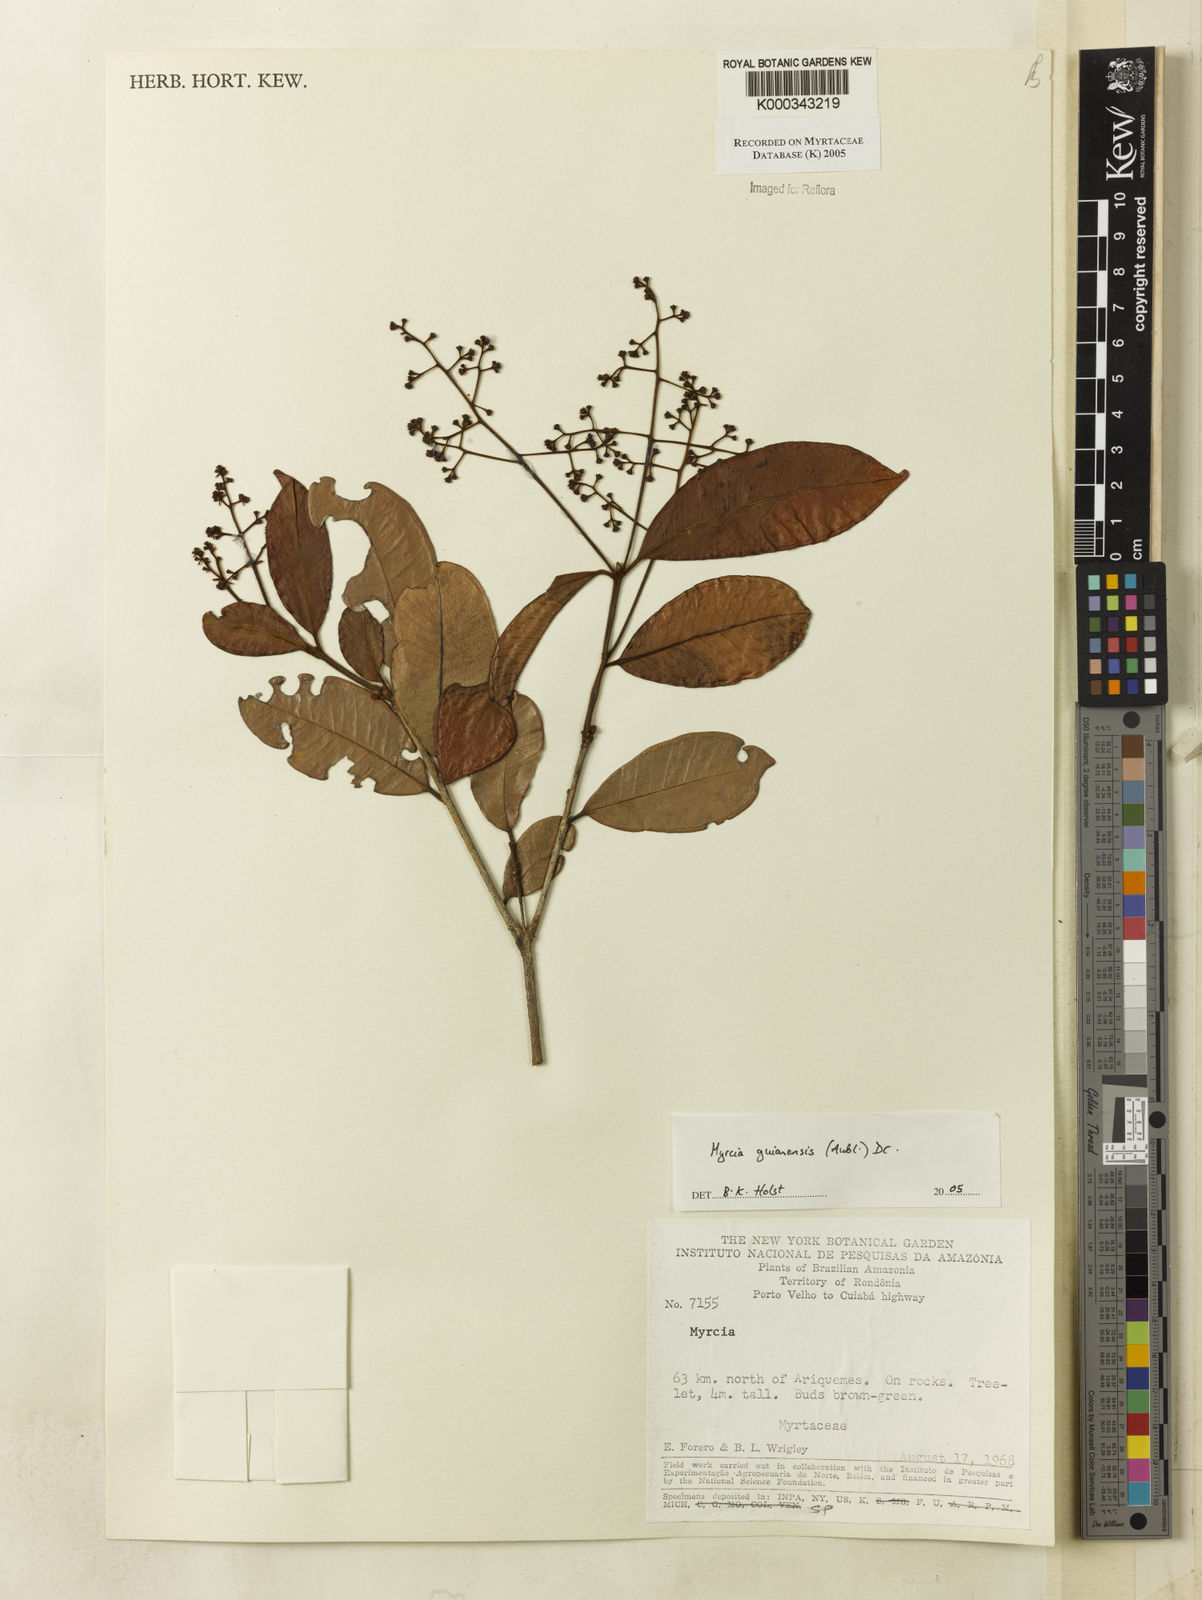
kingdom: Plantae
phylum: Tracheophyta
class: Magnoliopsida
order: Myrtales
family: Myrtaceae
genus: Myrcia
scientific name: Myrcia guianensis
